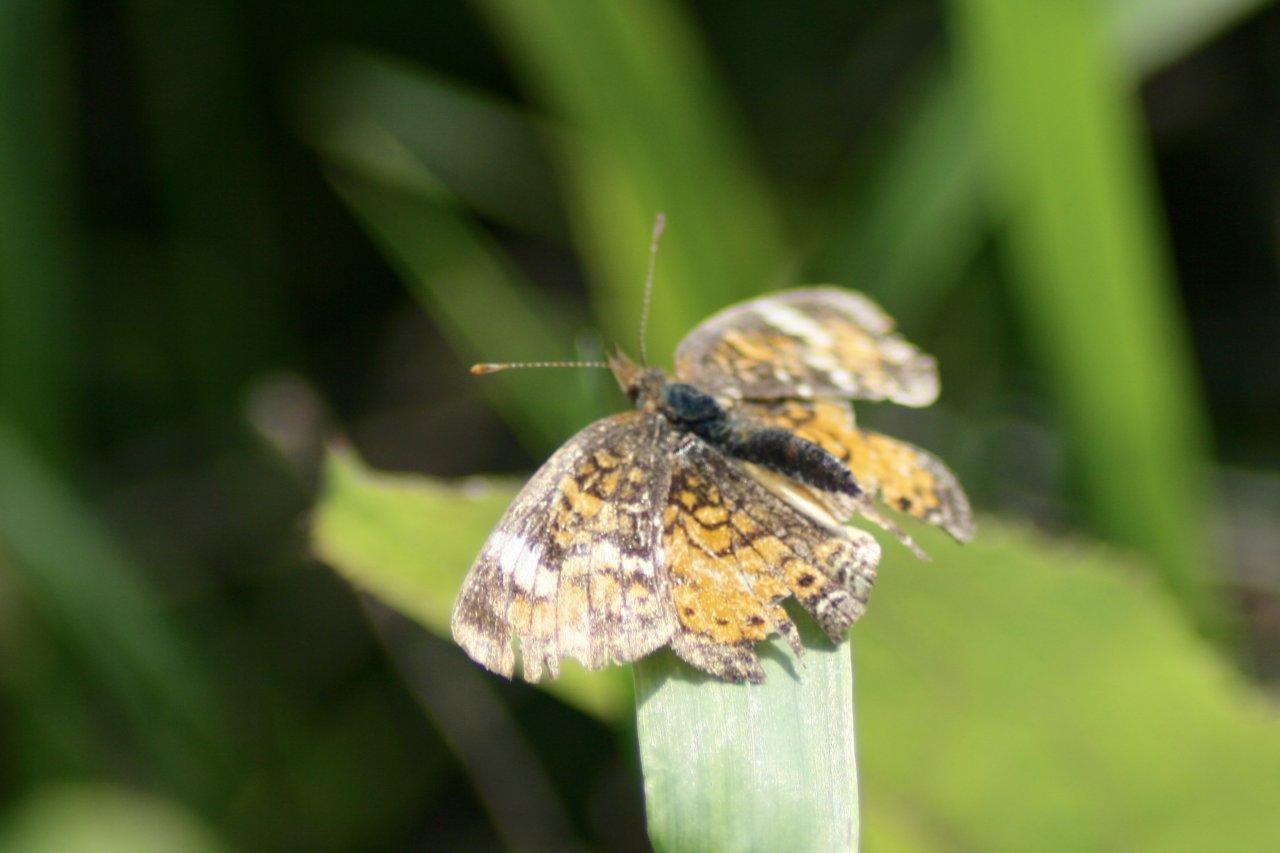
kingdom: Animalia
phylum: Arthropoda
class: Insecta
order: Lepidoptera
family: Nymphalidae
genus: Phyciodes
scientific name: Phyciodes tharos
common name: Northern Crescent
